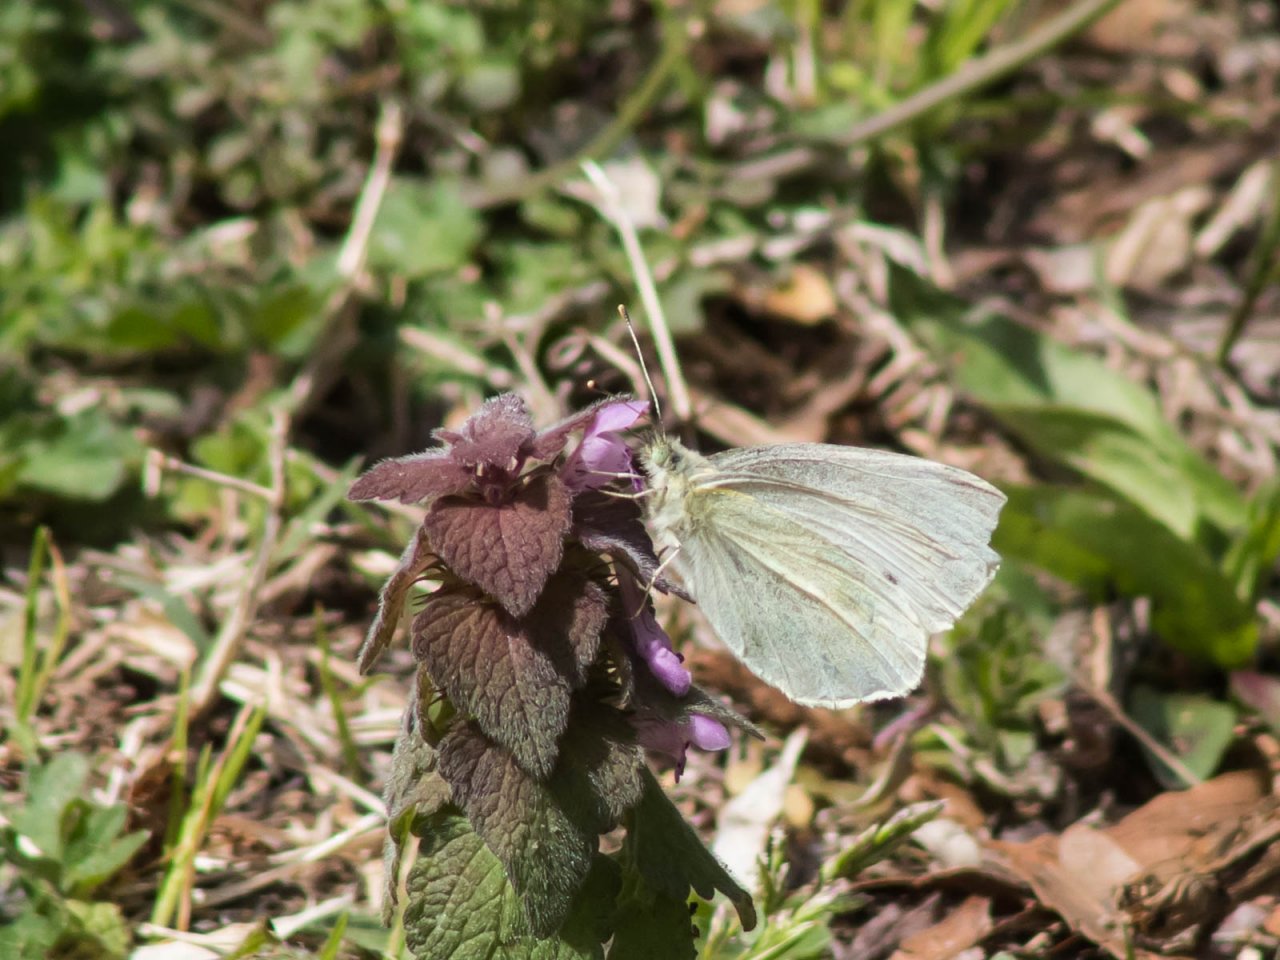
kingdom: Animalia
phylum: Arthropoda
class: Insecta
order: Lepidoptera
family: Pieridae
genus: Pieris
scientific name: Pieris rapae
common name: Cabbage White
